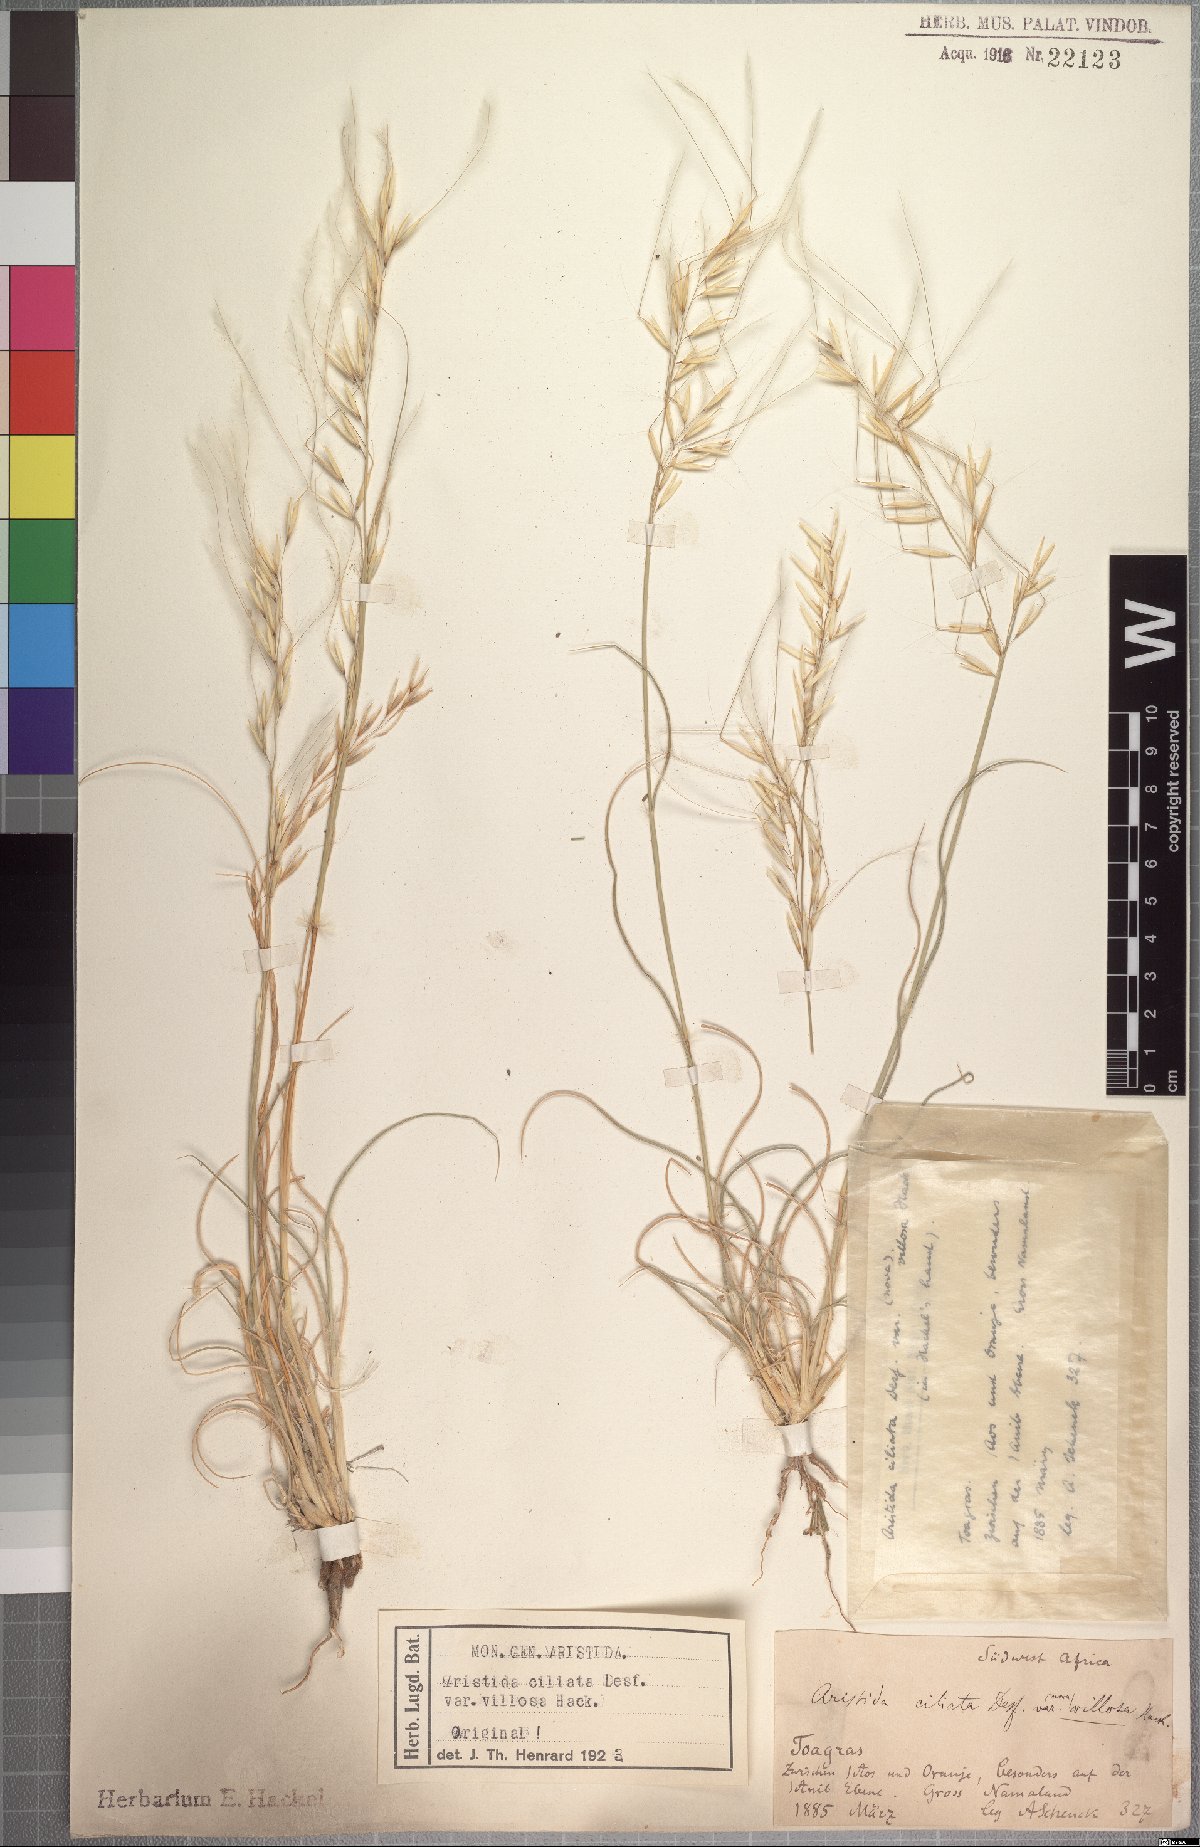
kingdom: Plantae
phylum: Tracheophyta
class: Liliopsida
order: Poales
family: Poaceae
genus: Stipagrostis
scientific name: Stipagrostis ciliata
